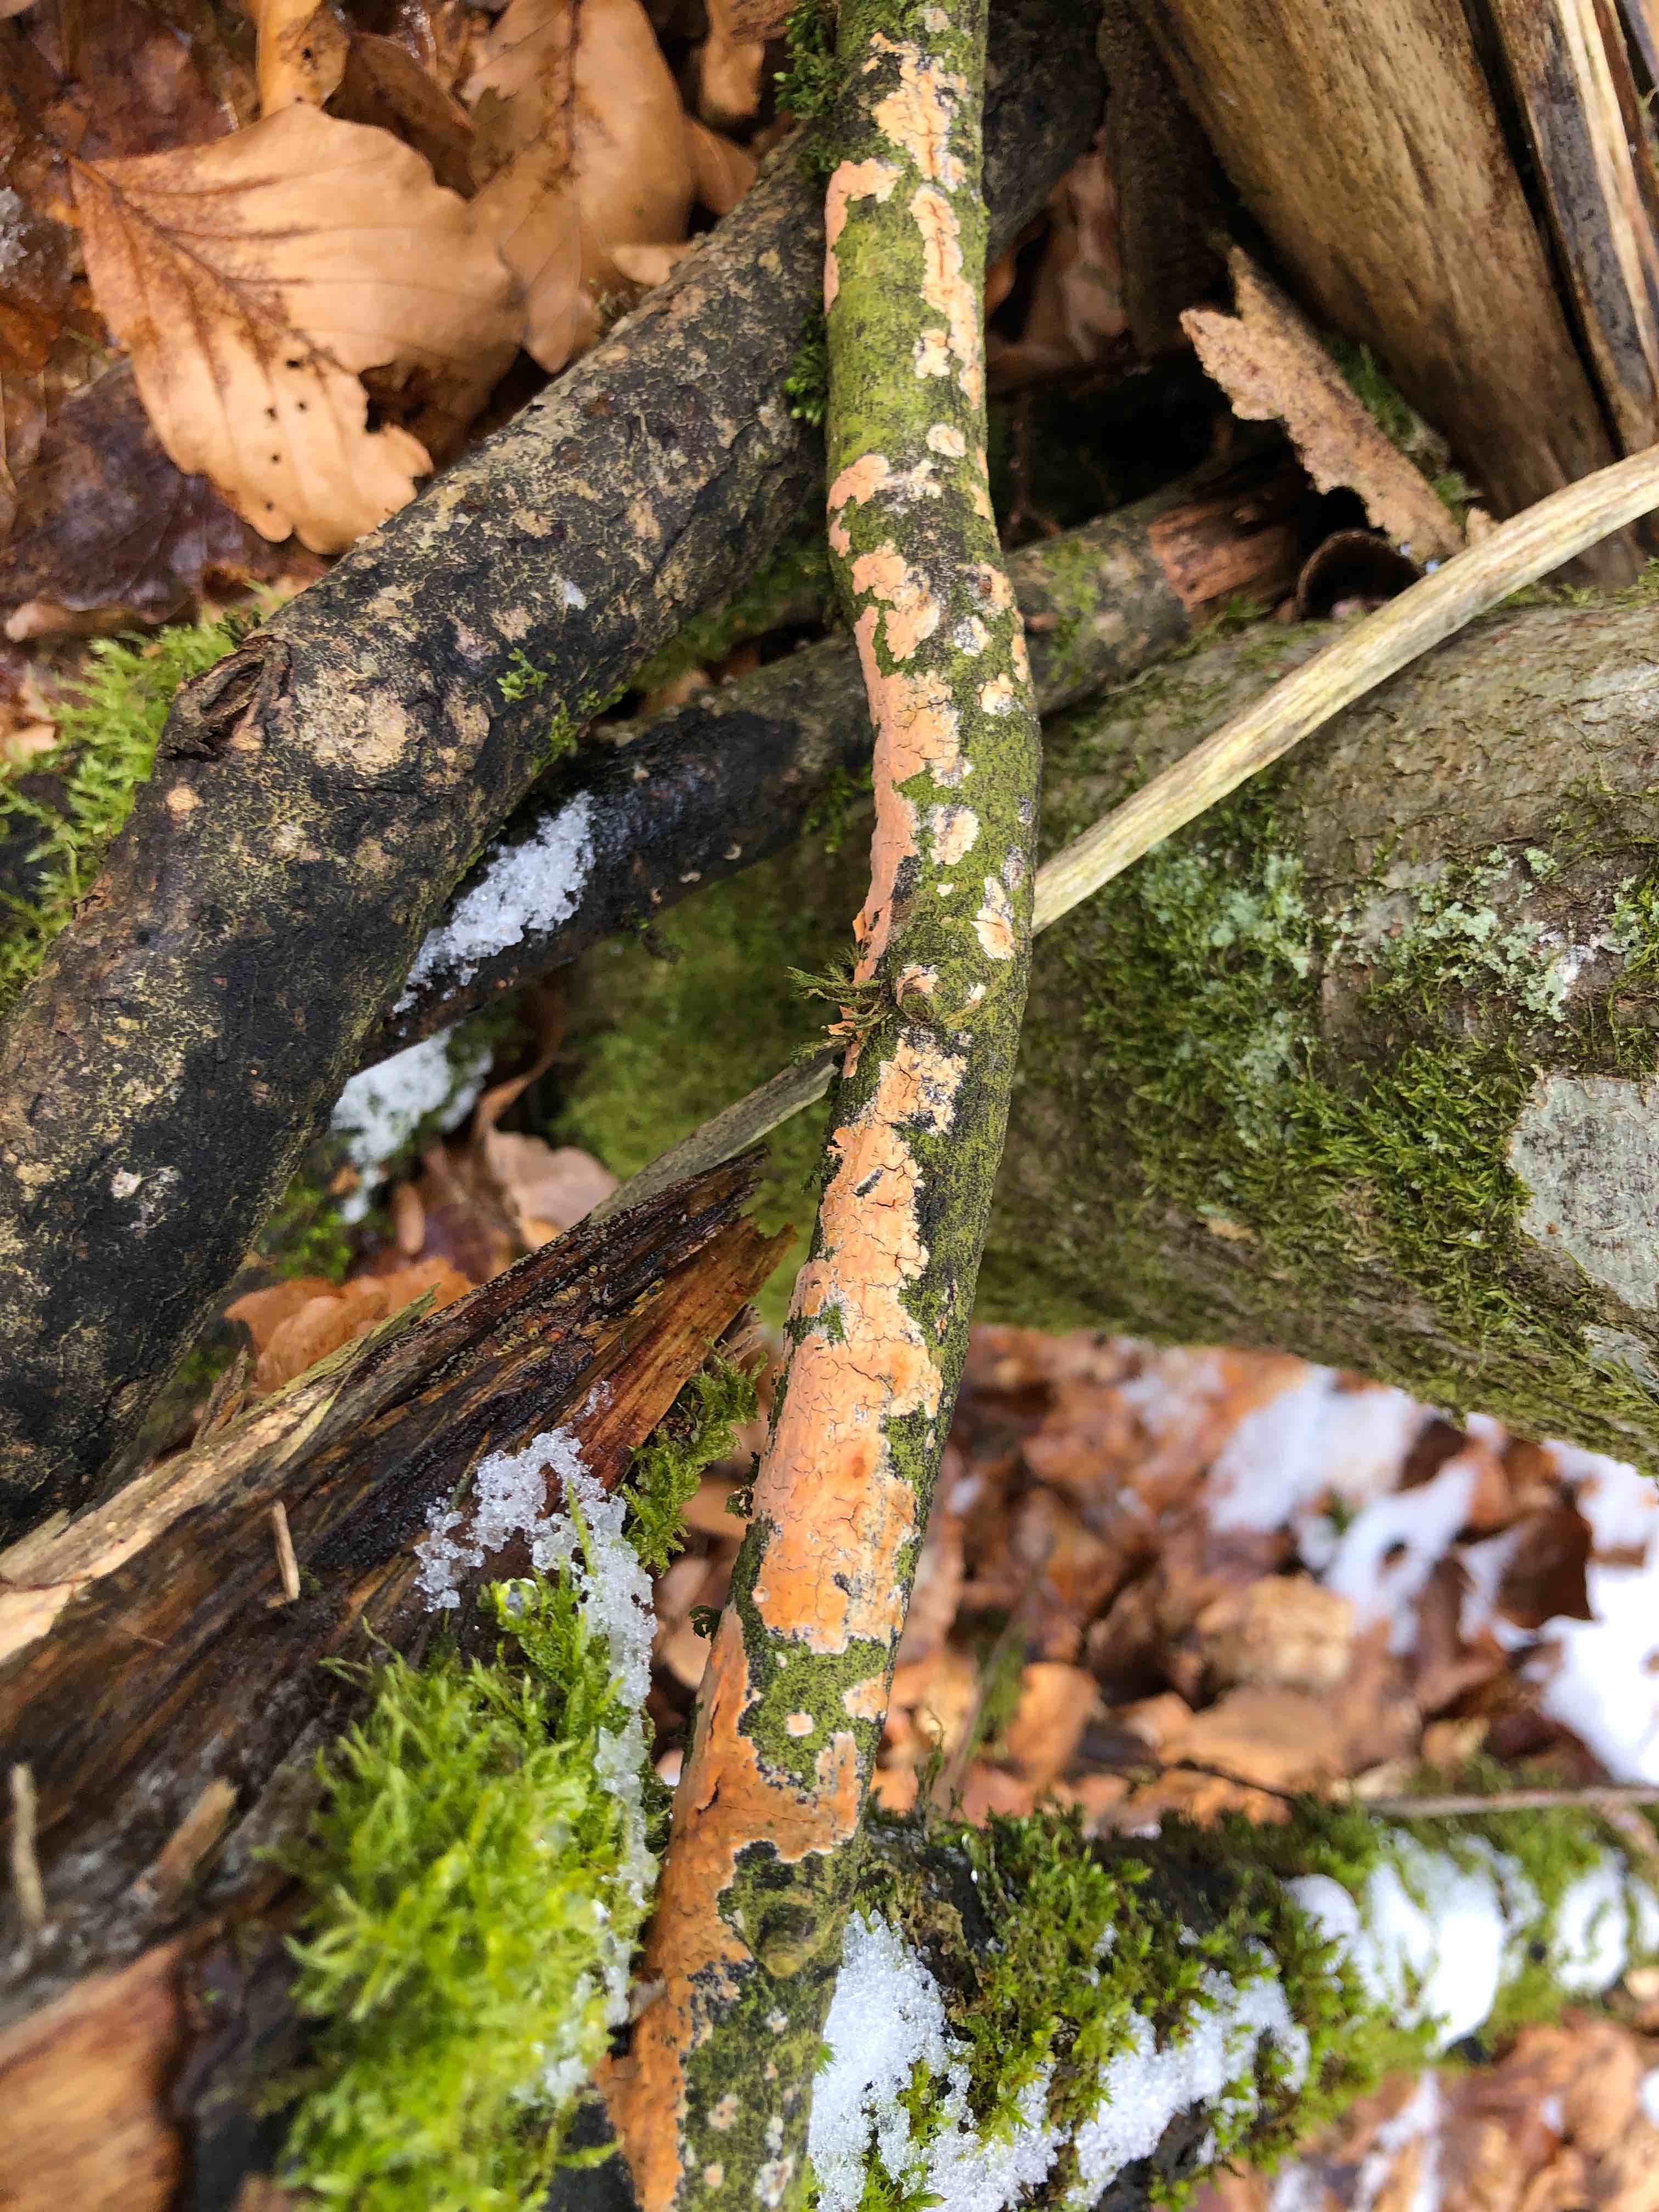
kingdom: Fungi
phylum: Basidiomycota
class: Agaricomycetes
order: Russulales
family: Peniophoraceae
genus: Peniophora
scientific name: Peniophora incarnata
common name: laksefarvet voksskind
